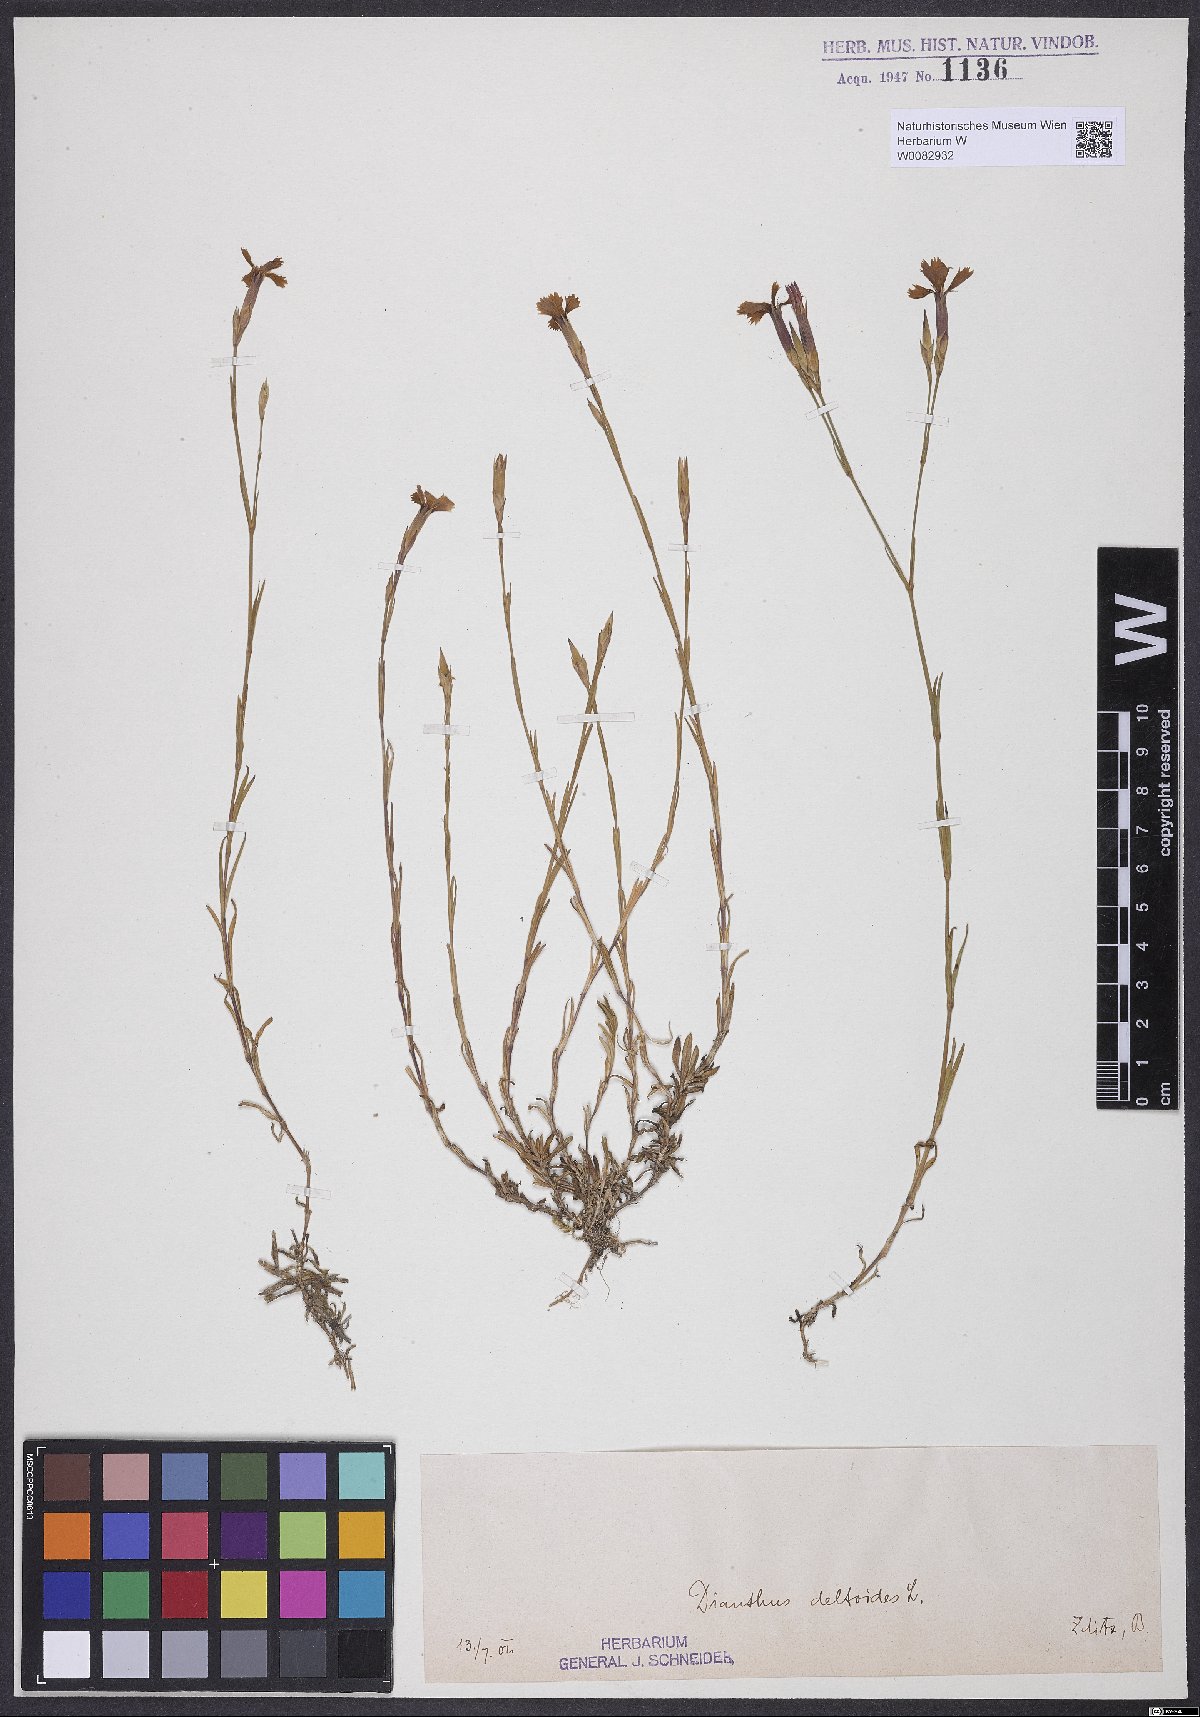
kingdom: Plantae
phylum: Tracheophyta
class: Magnoliopsida
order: Caryophyllales
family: Caryophyllaceae
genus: Dianthus
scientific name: Dianthus deltoides
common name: Maiden pink
